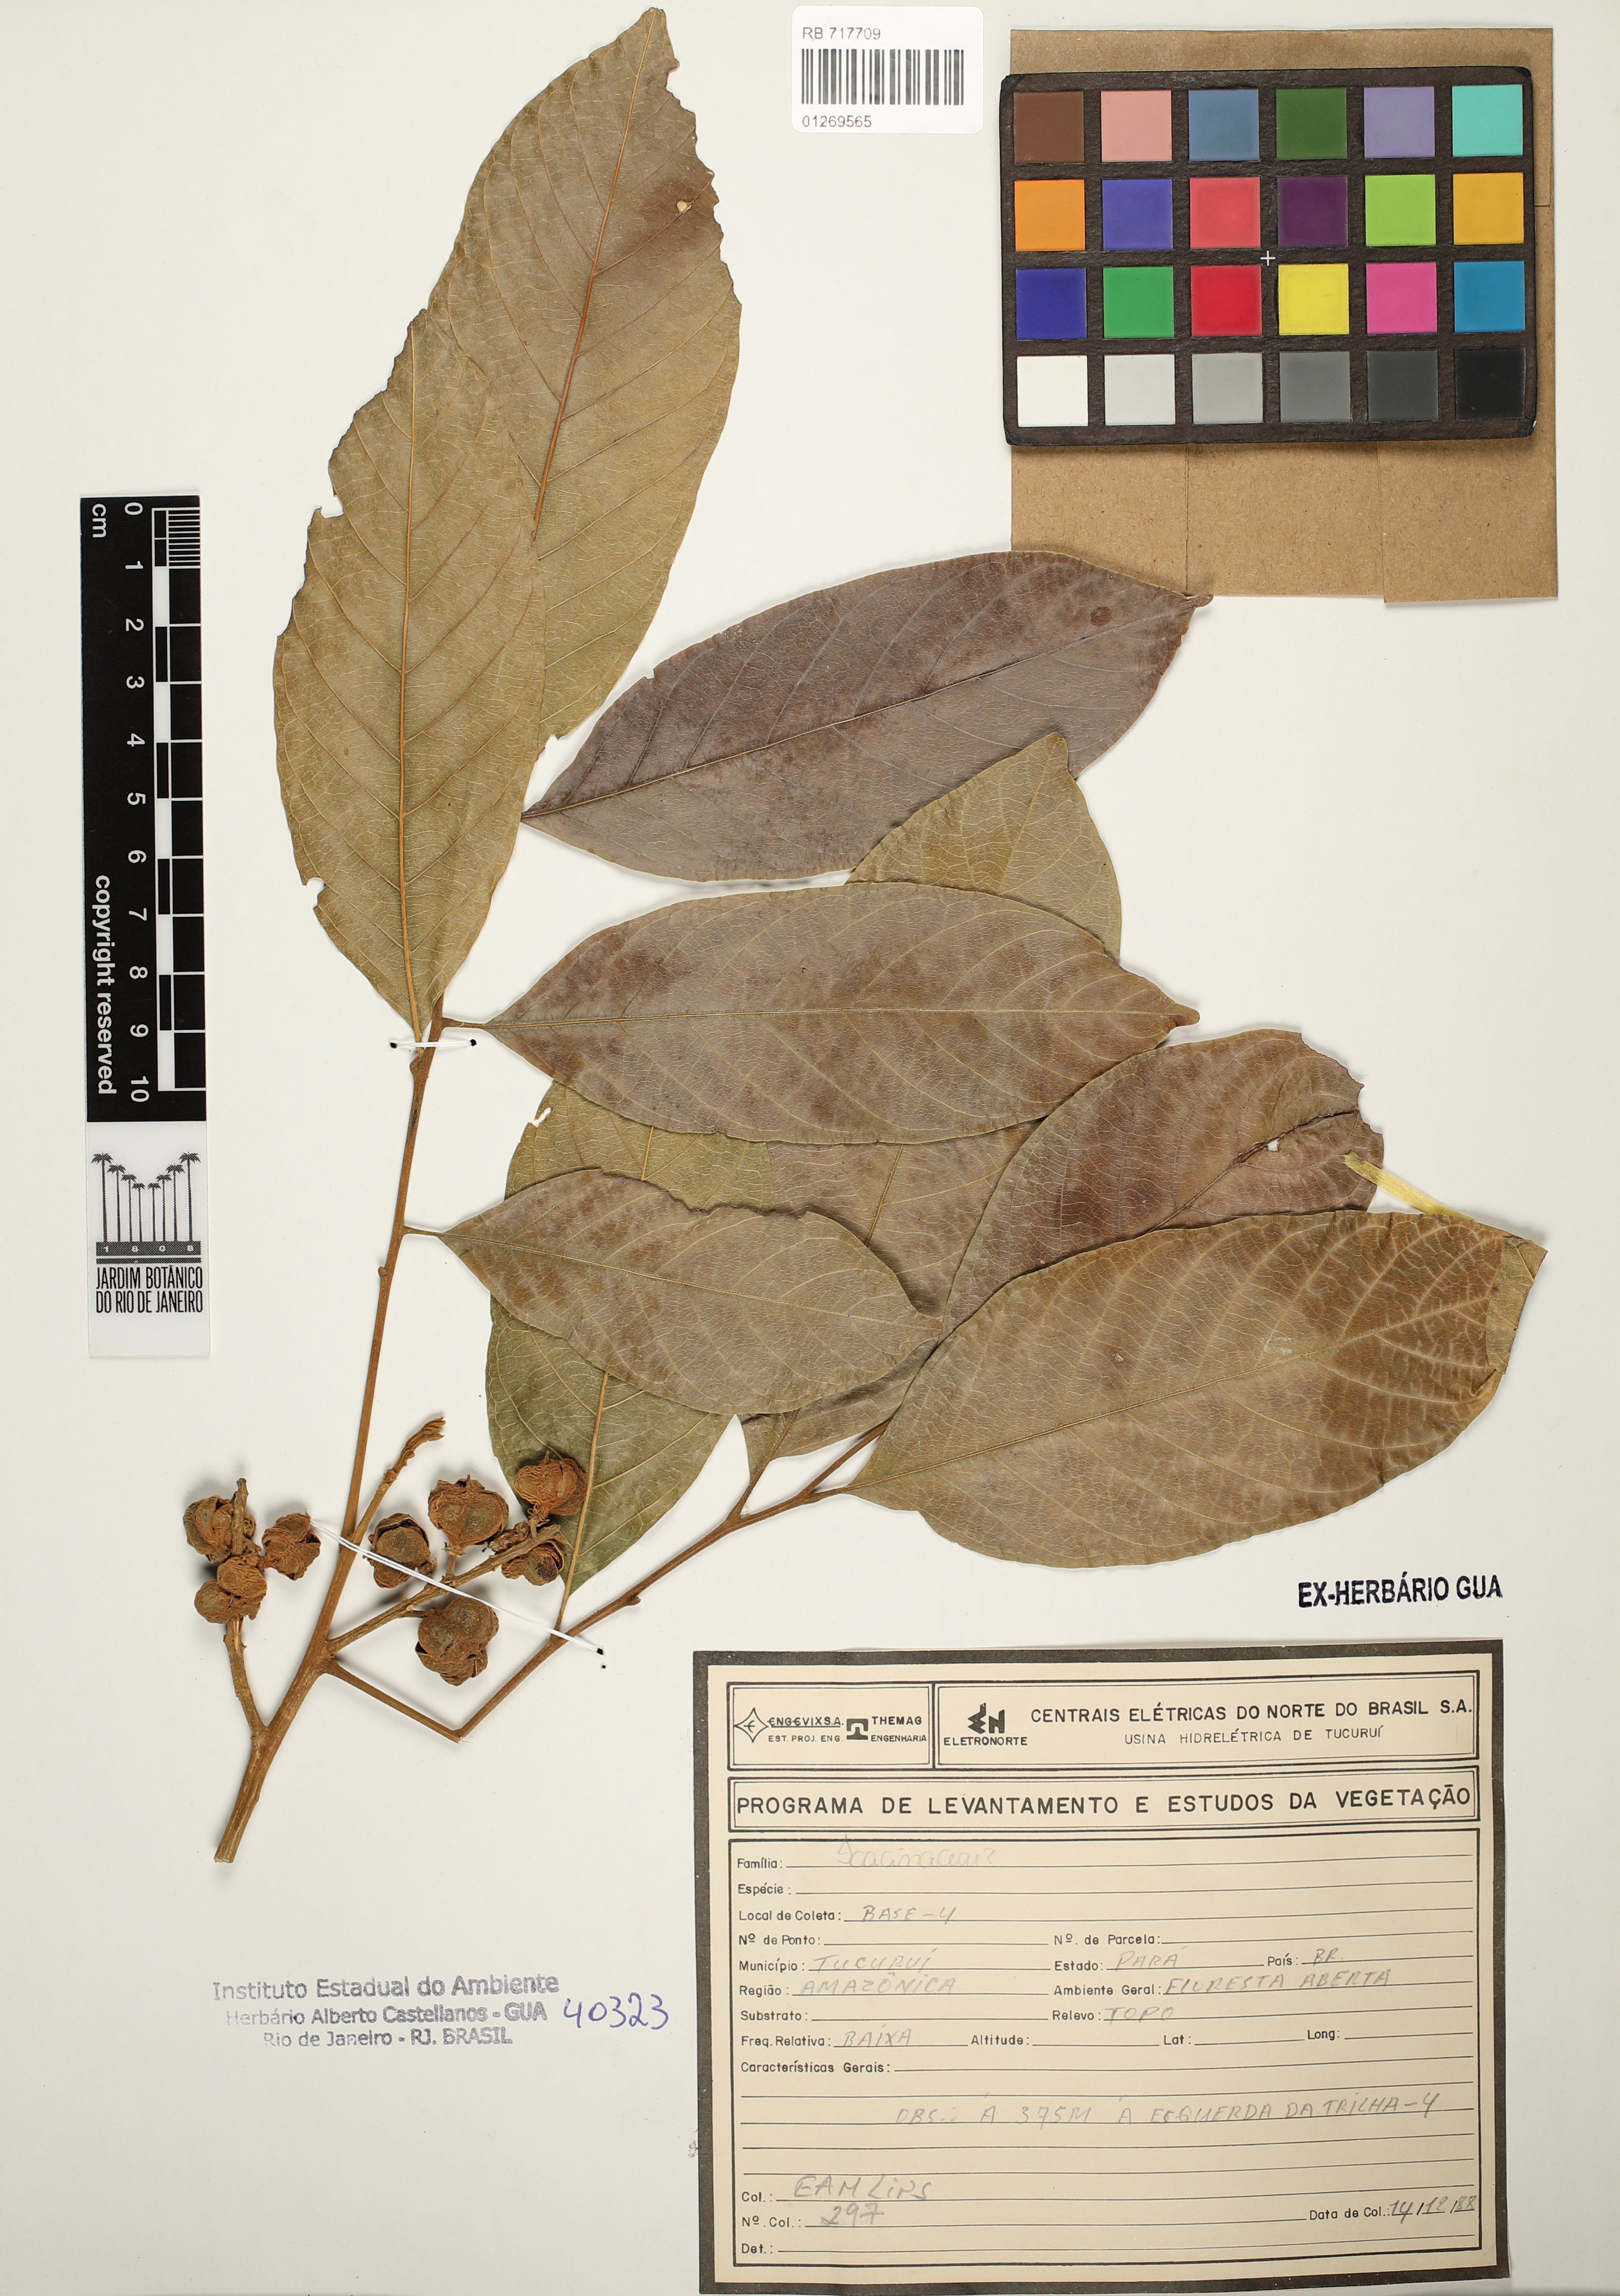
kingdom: Plantae
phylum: Tracheophyta
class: Magnoliopsida
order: Icacinales
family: Icacinaceae
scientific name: Icacinaceae
